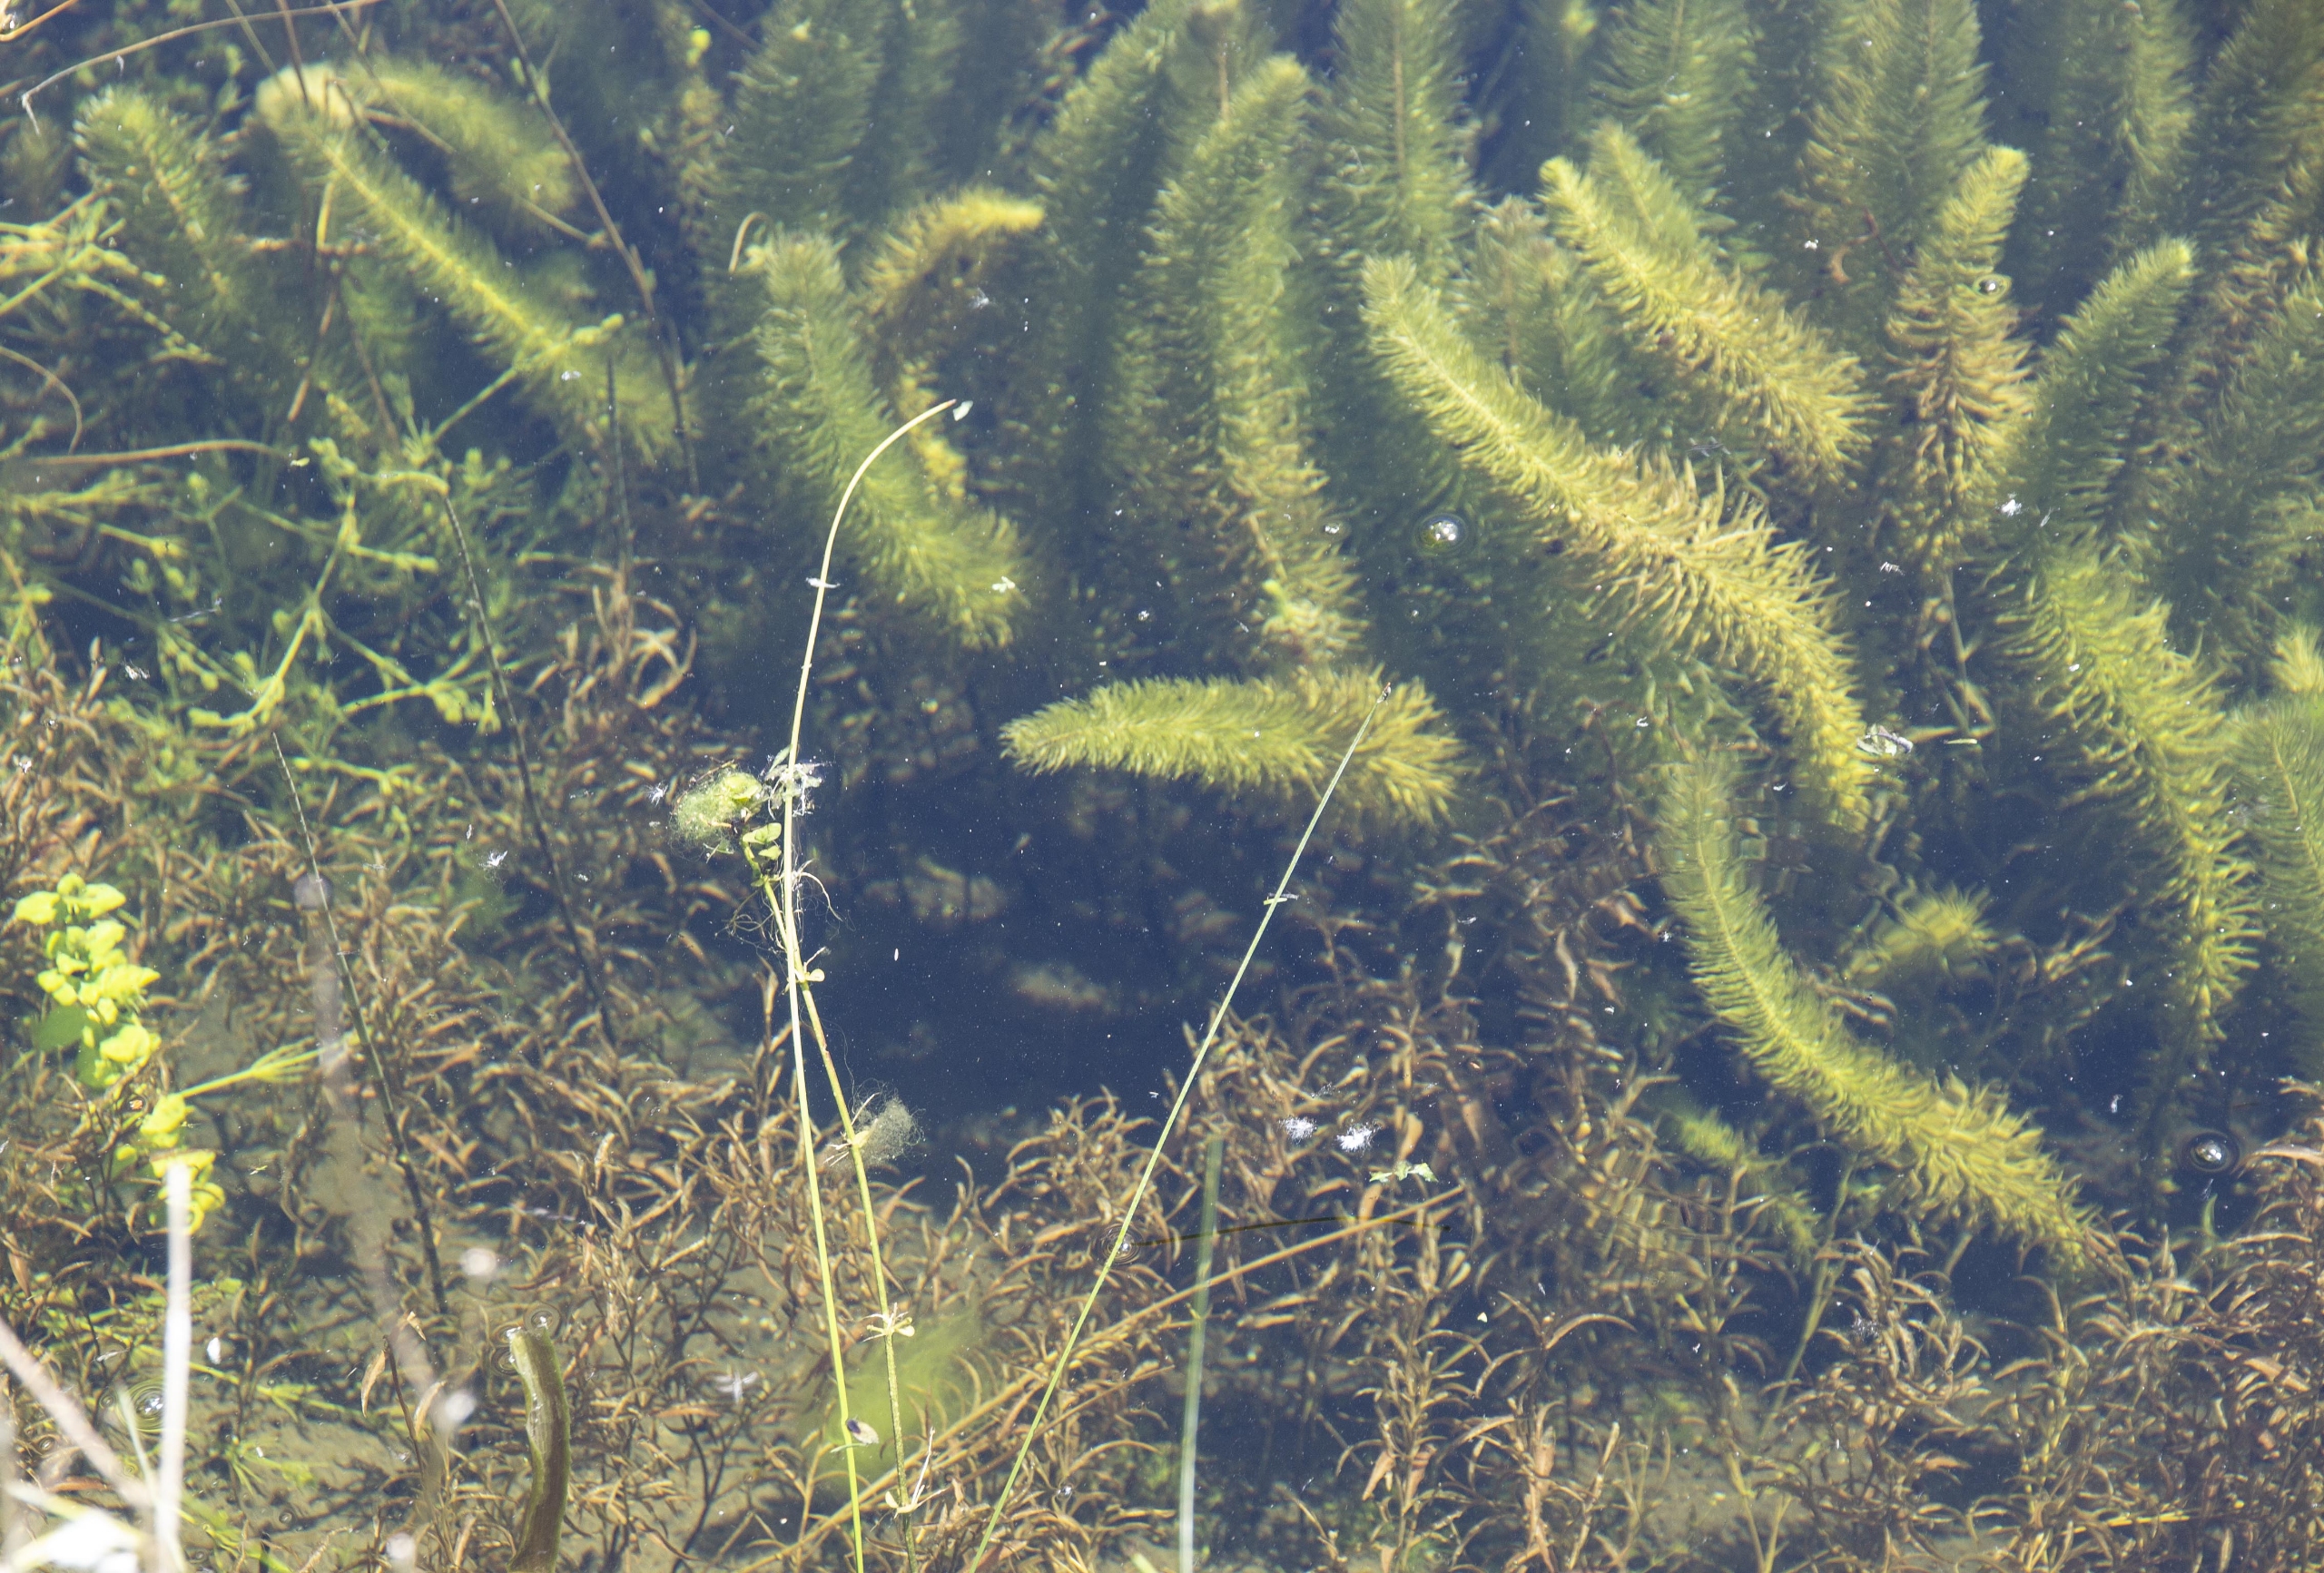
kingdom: Plantae
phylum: Tracheophyta
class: Magnoliopsida
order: Lamiales
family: Plantaginaceae
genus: Hippuris
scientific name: Hippuris vulgaris
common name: Vandspir
